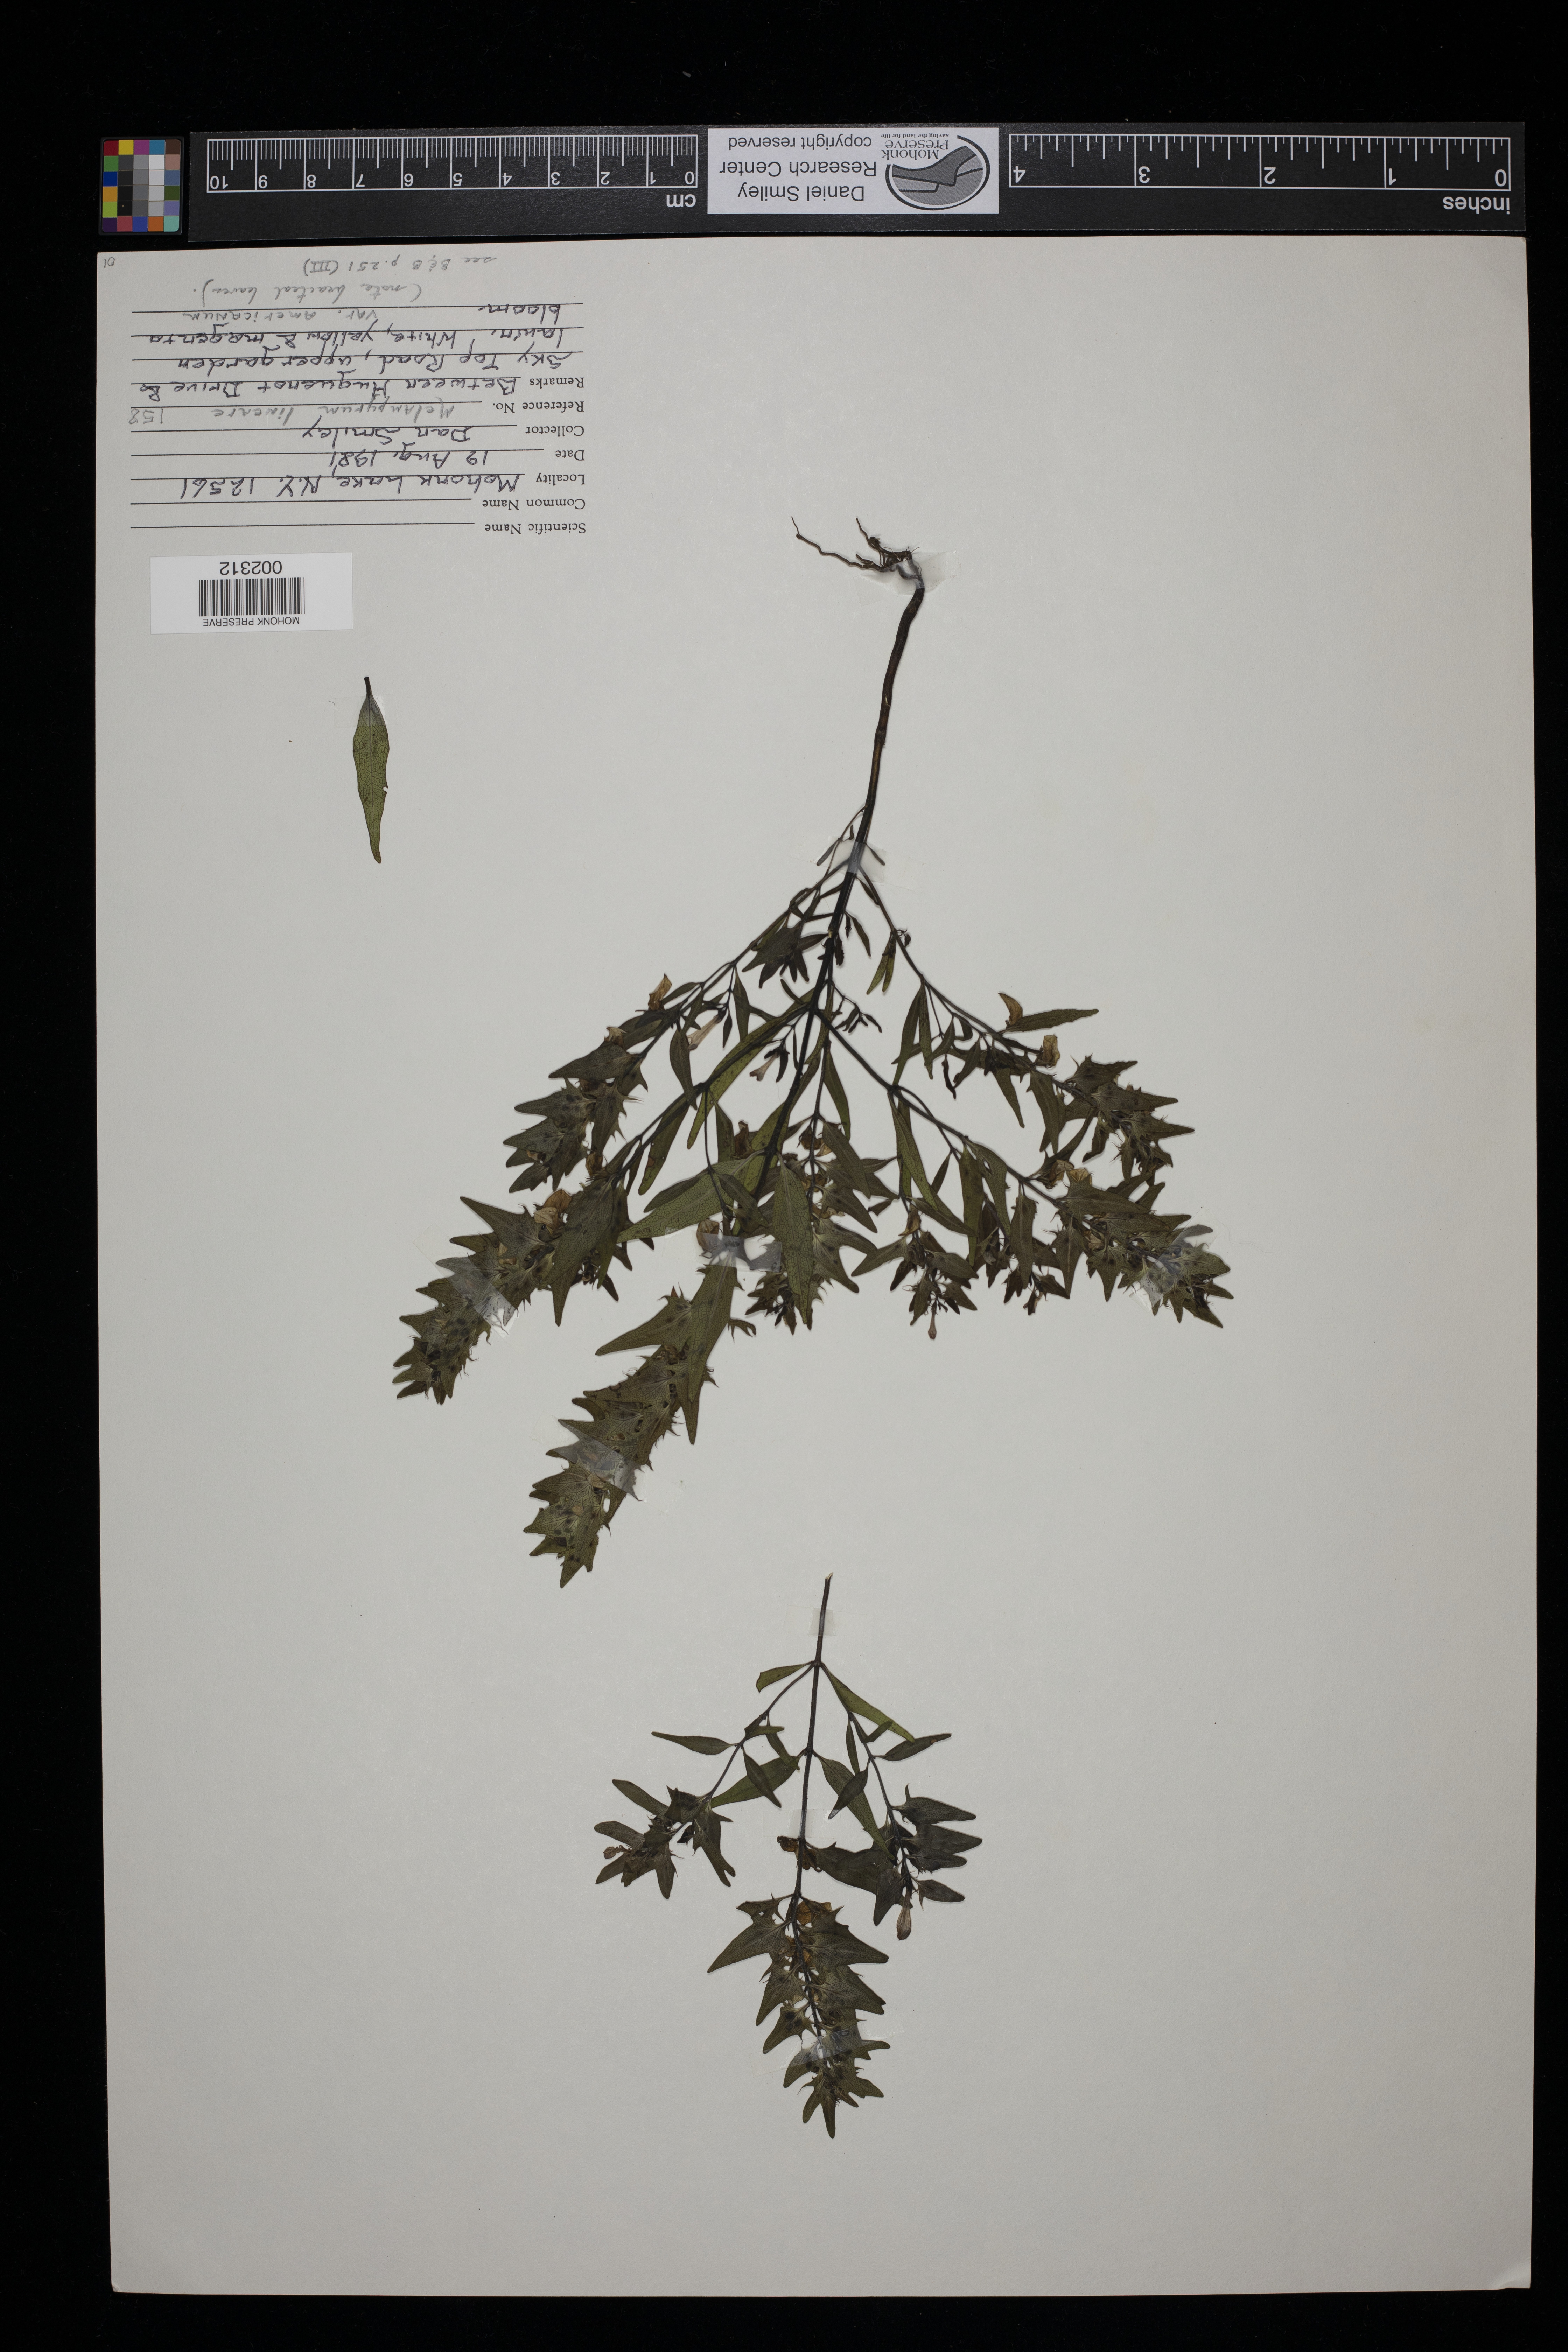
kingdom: Plantae
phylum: Tracheophyta
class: Magnoliopsida
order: Lamiales
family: Orobanchaceae
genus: Melampyrum
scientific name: Melampyrum lineare
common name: American cow-wheat
